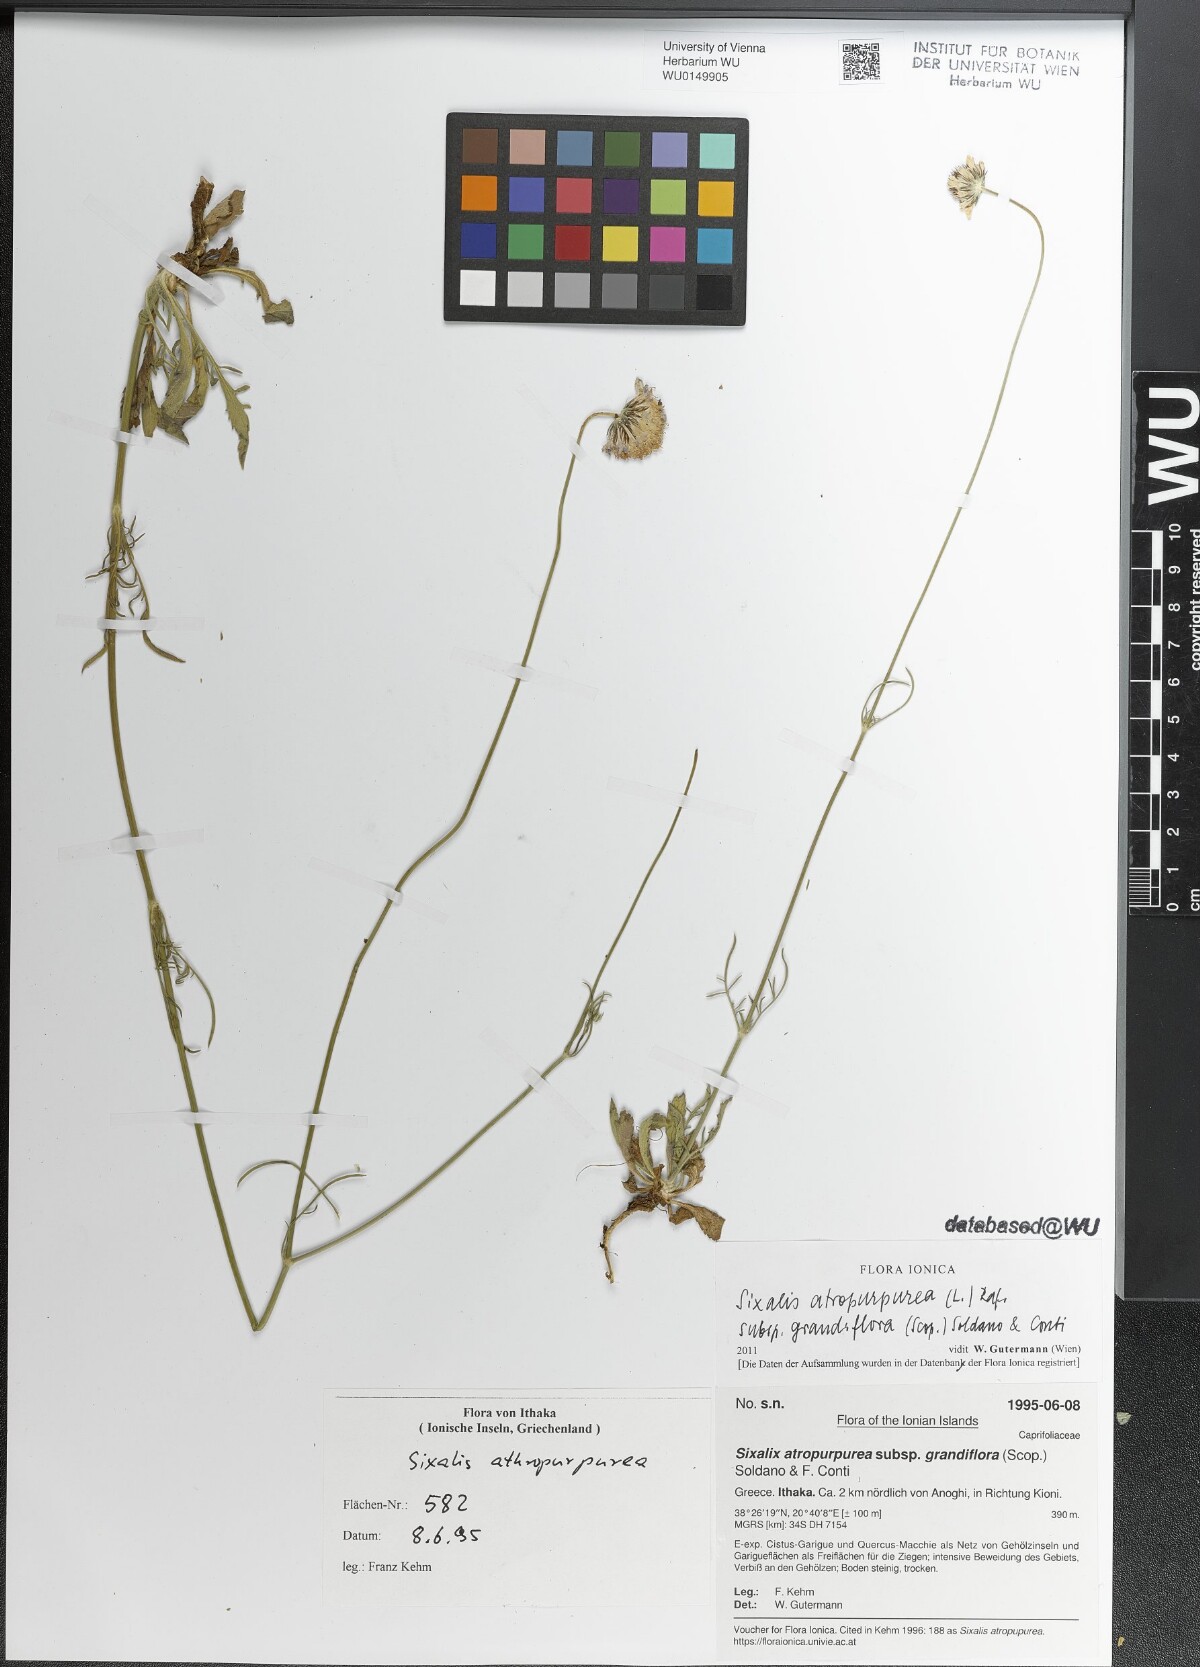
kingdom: Plantae
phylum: Tracheophyta
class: Magnoliopsida
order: Dipsacales
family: Caprifoliaceae
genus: Sixalix
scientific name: Sixalix atropurpurea
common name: Sweet scabious
